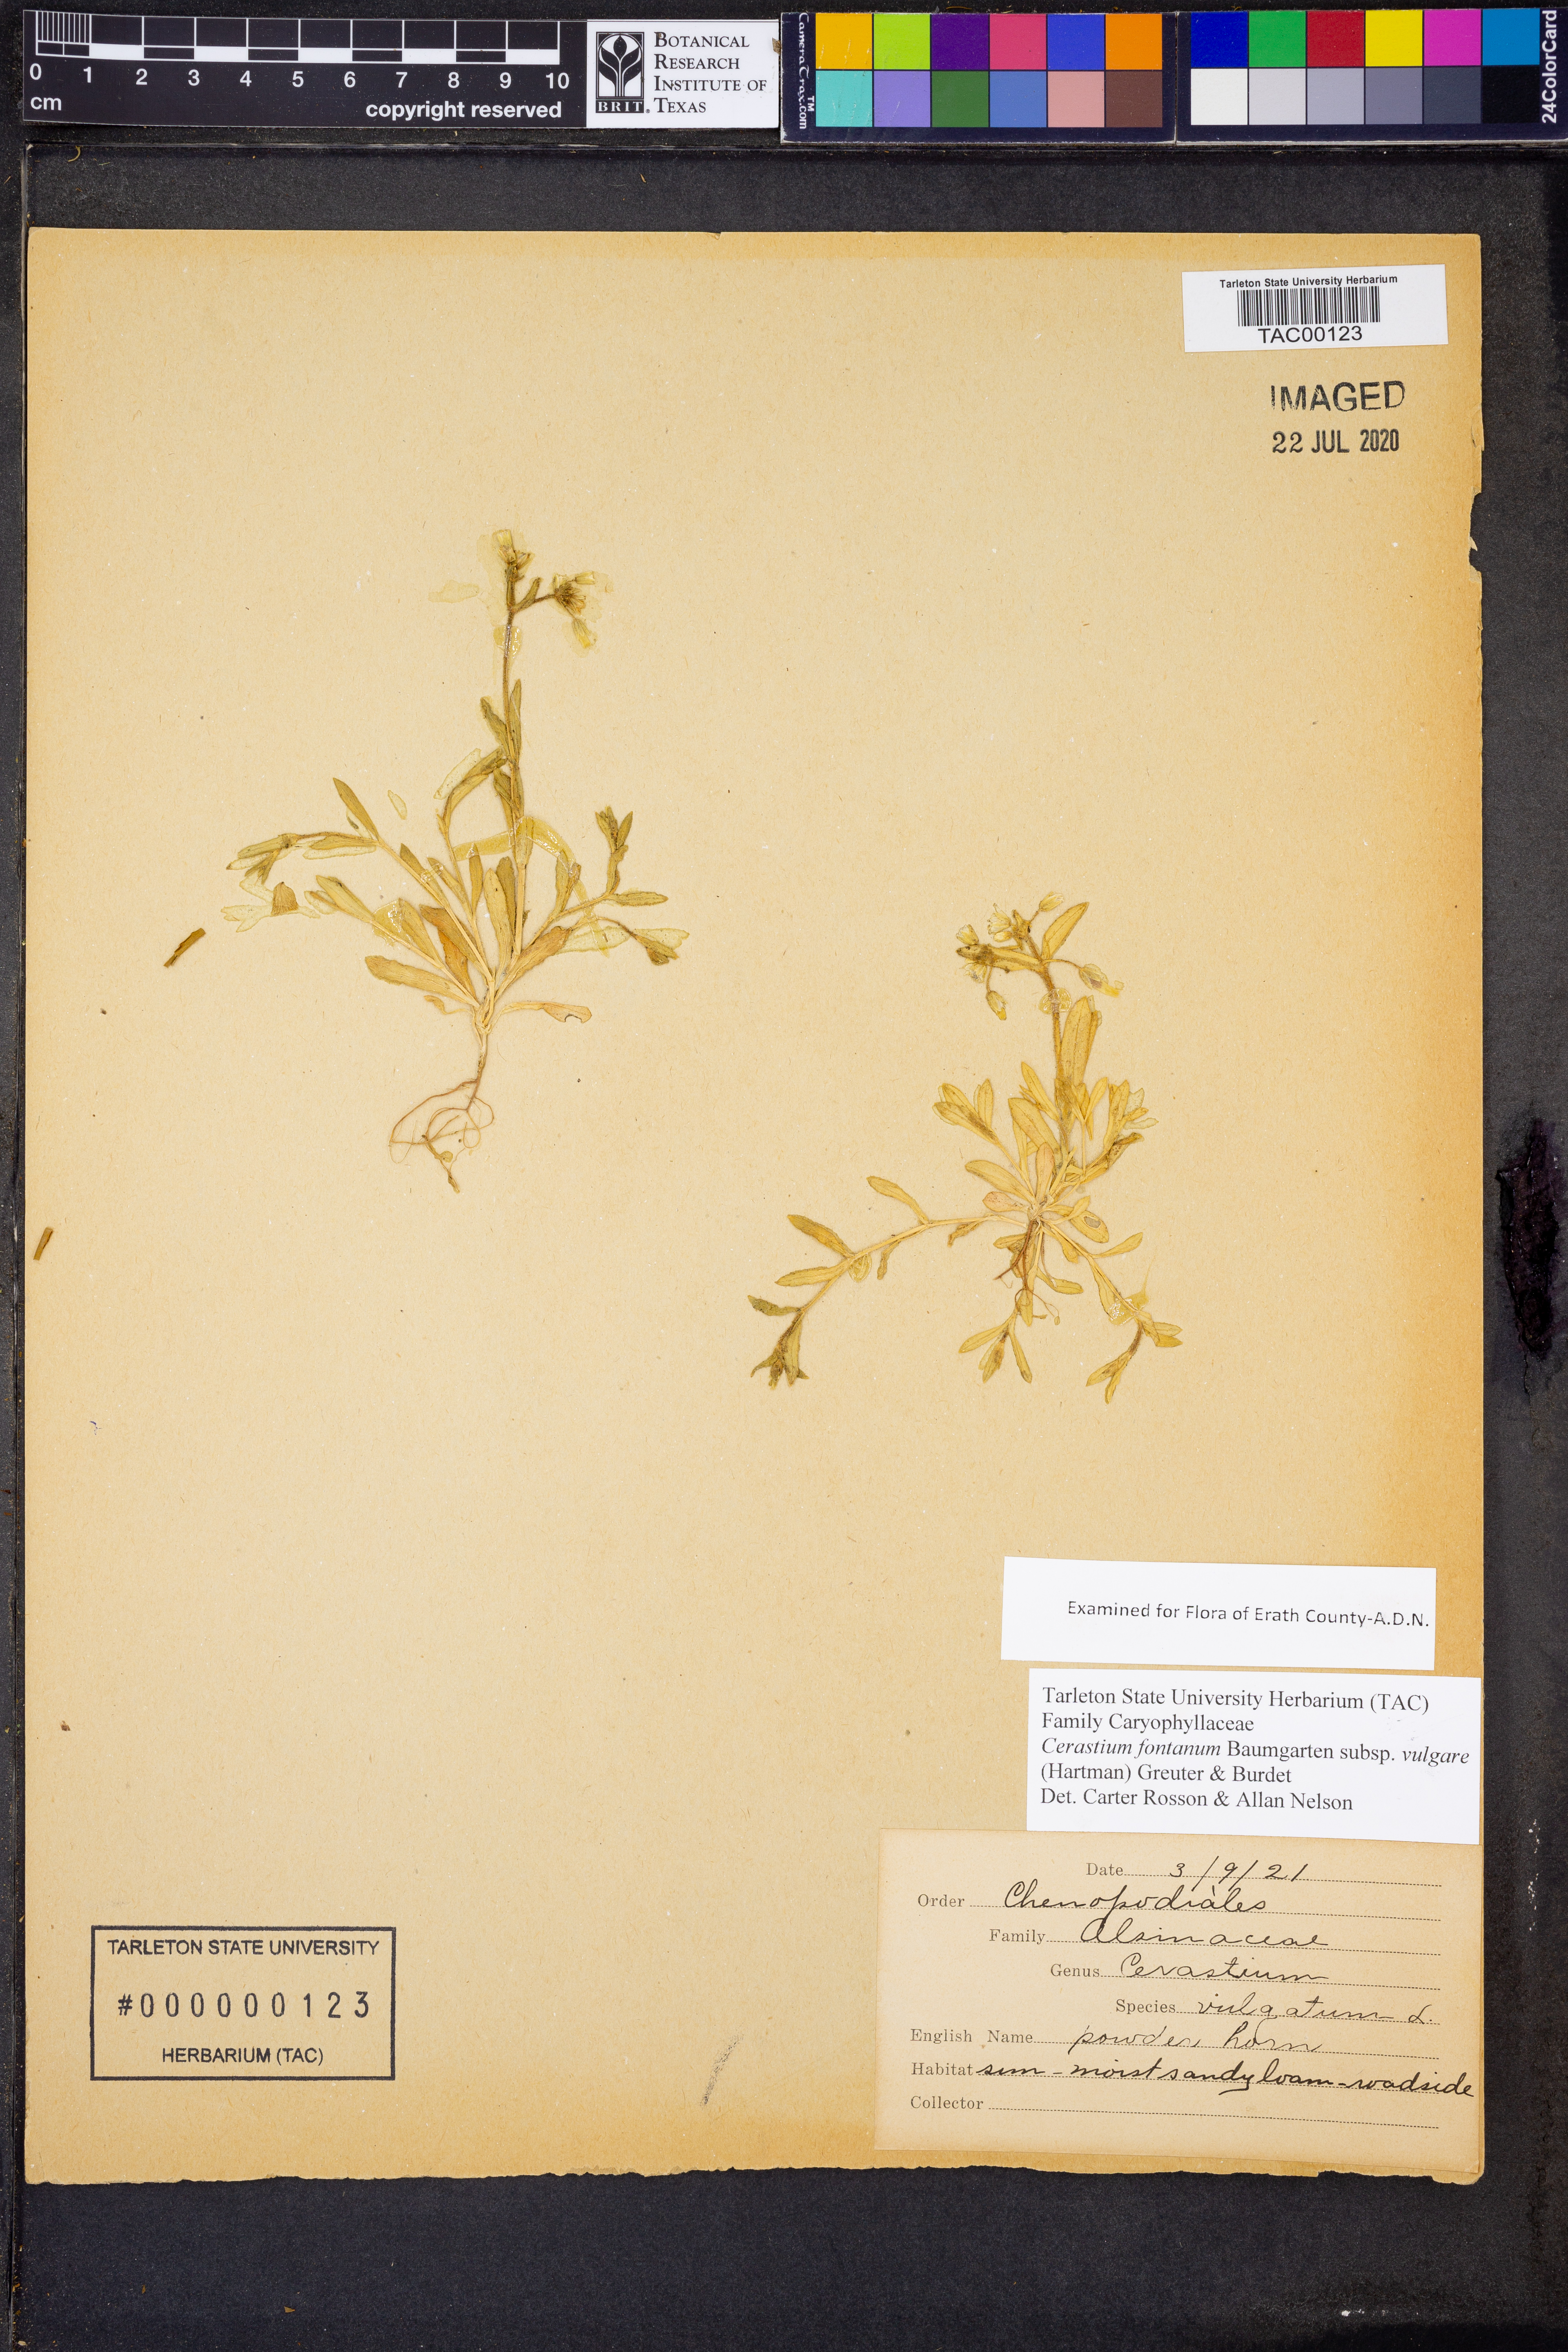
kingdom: Plantae
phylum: Tracheophyta
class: Magnoliopsida
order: Caryophyllales
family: Caryophyllaceae
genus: Cerastium
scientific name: Cerastium holosteoides
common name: Big chickweed
